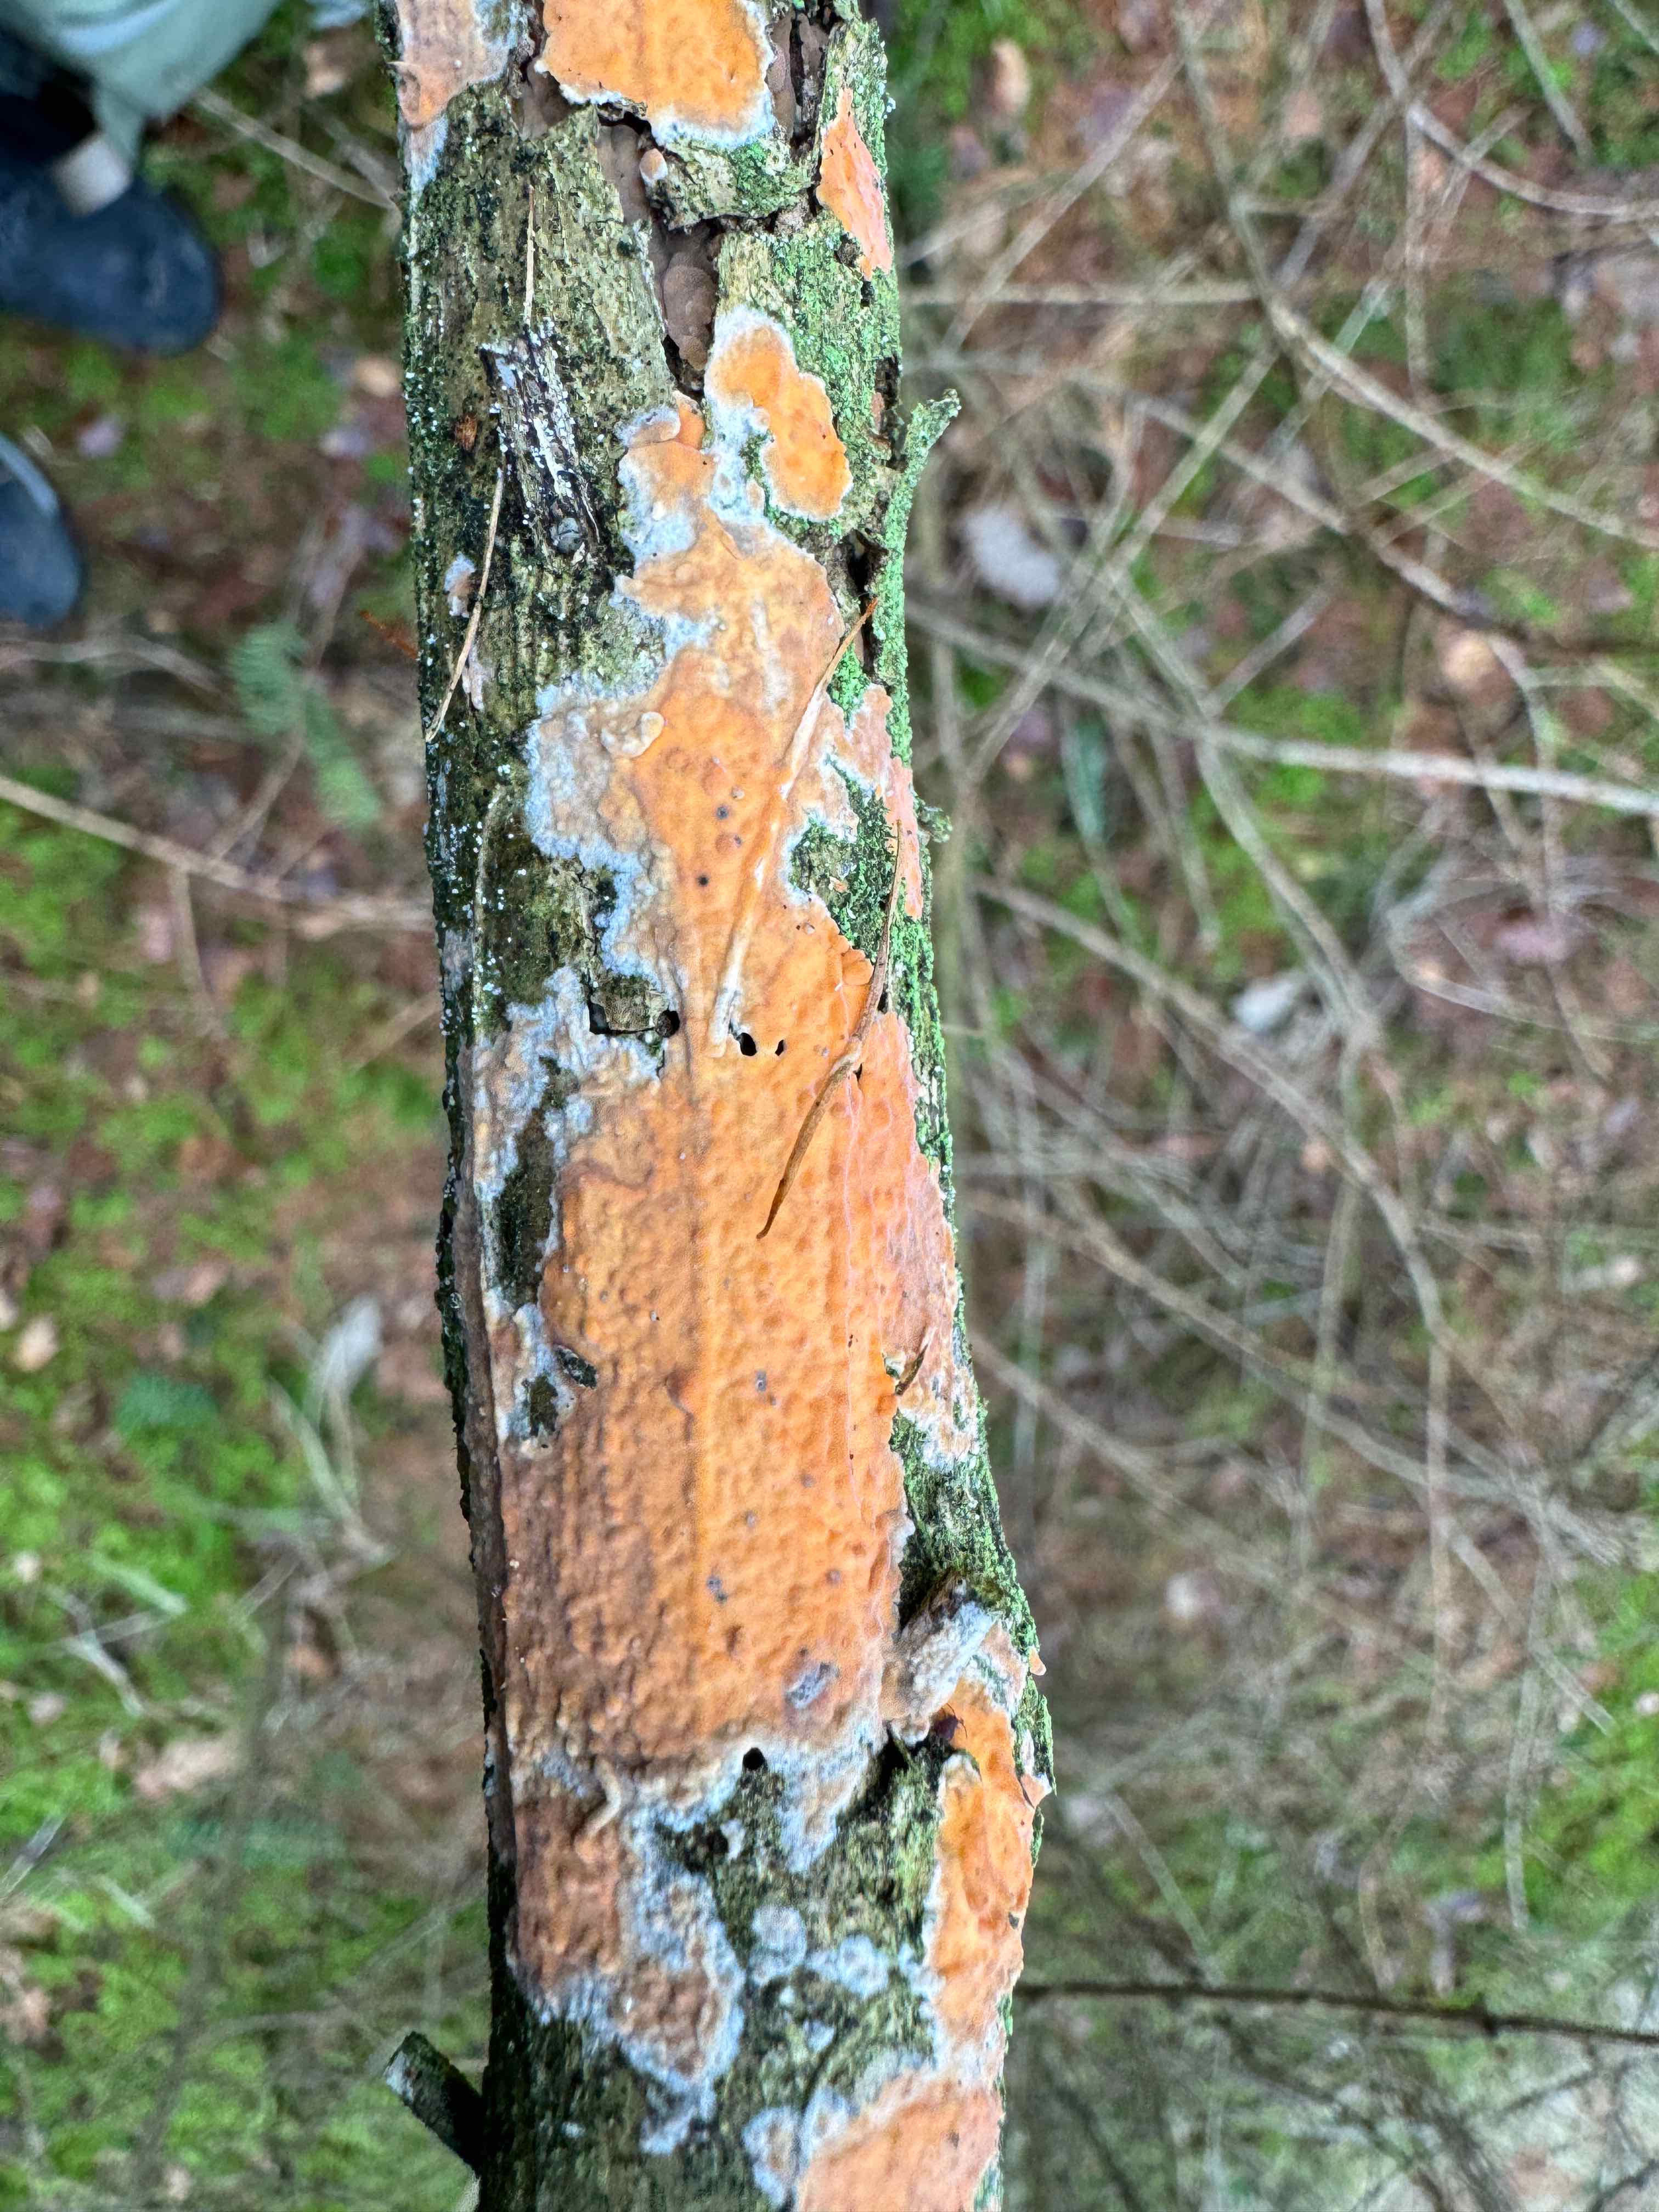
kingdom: Fungi
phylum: Basidiomycota
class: Agaricomycetes
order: Russulales
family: Peniophoraceae
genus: Peniophora
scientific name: Peniophora incarnata
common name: laksefarvet voksskind
